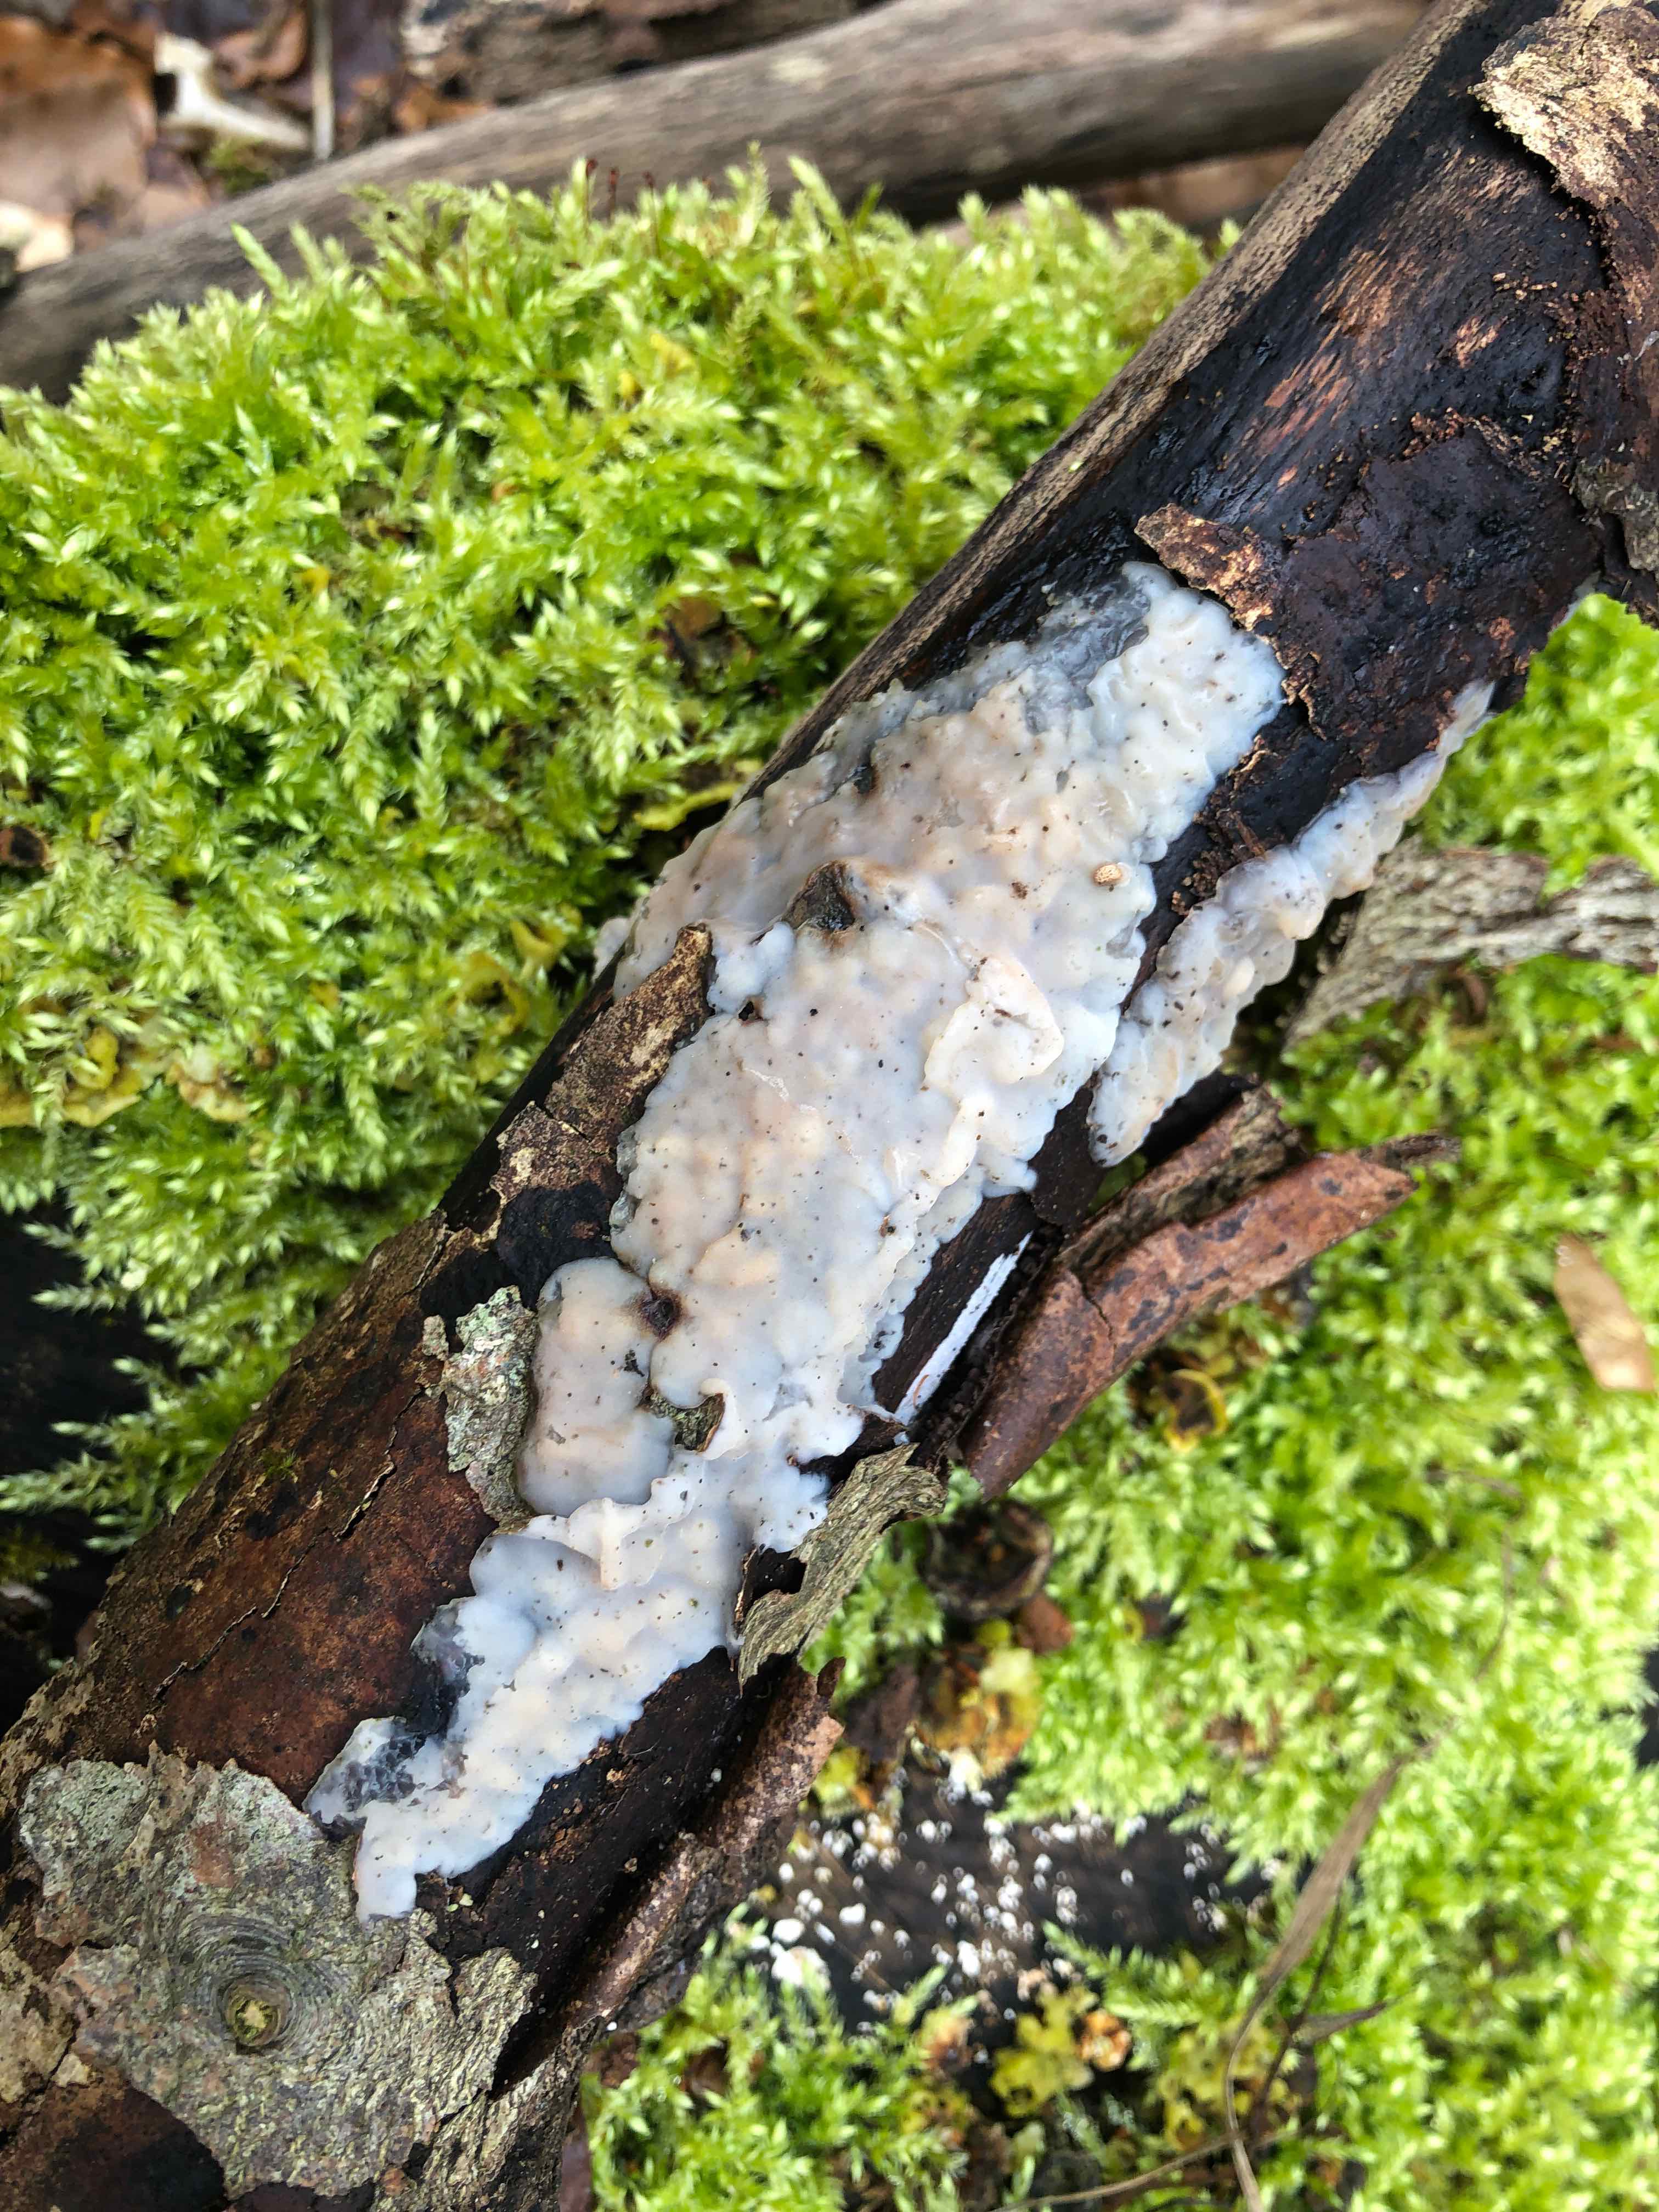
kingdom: Fungi
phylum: Basidiomycota
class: Agaricomycetes
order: Auriculariales
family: Auriculariaceae
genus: Exidia
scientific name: Exidia thuretiana
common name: hvidlig bævretop
